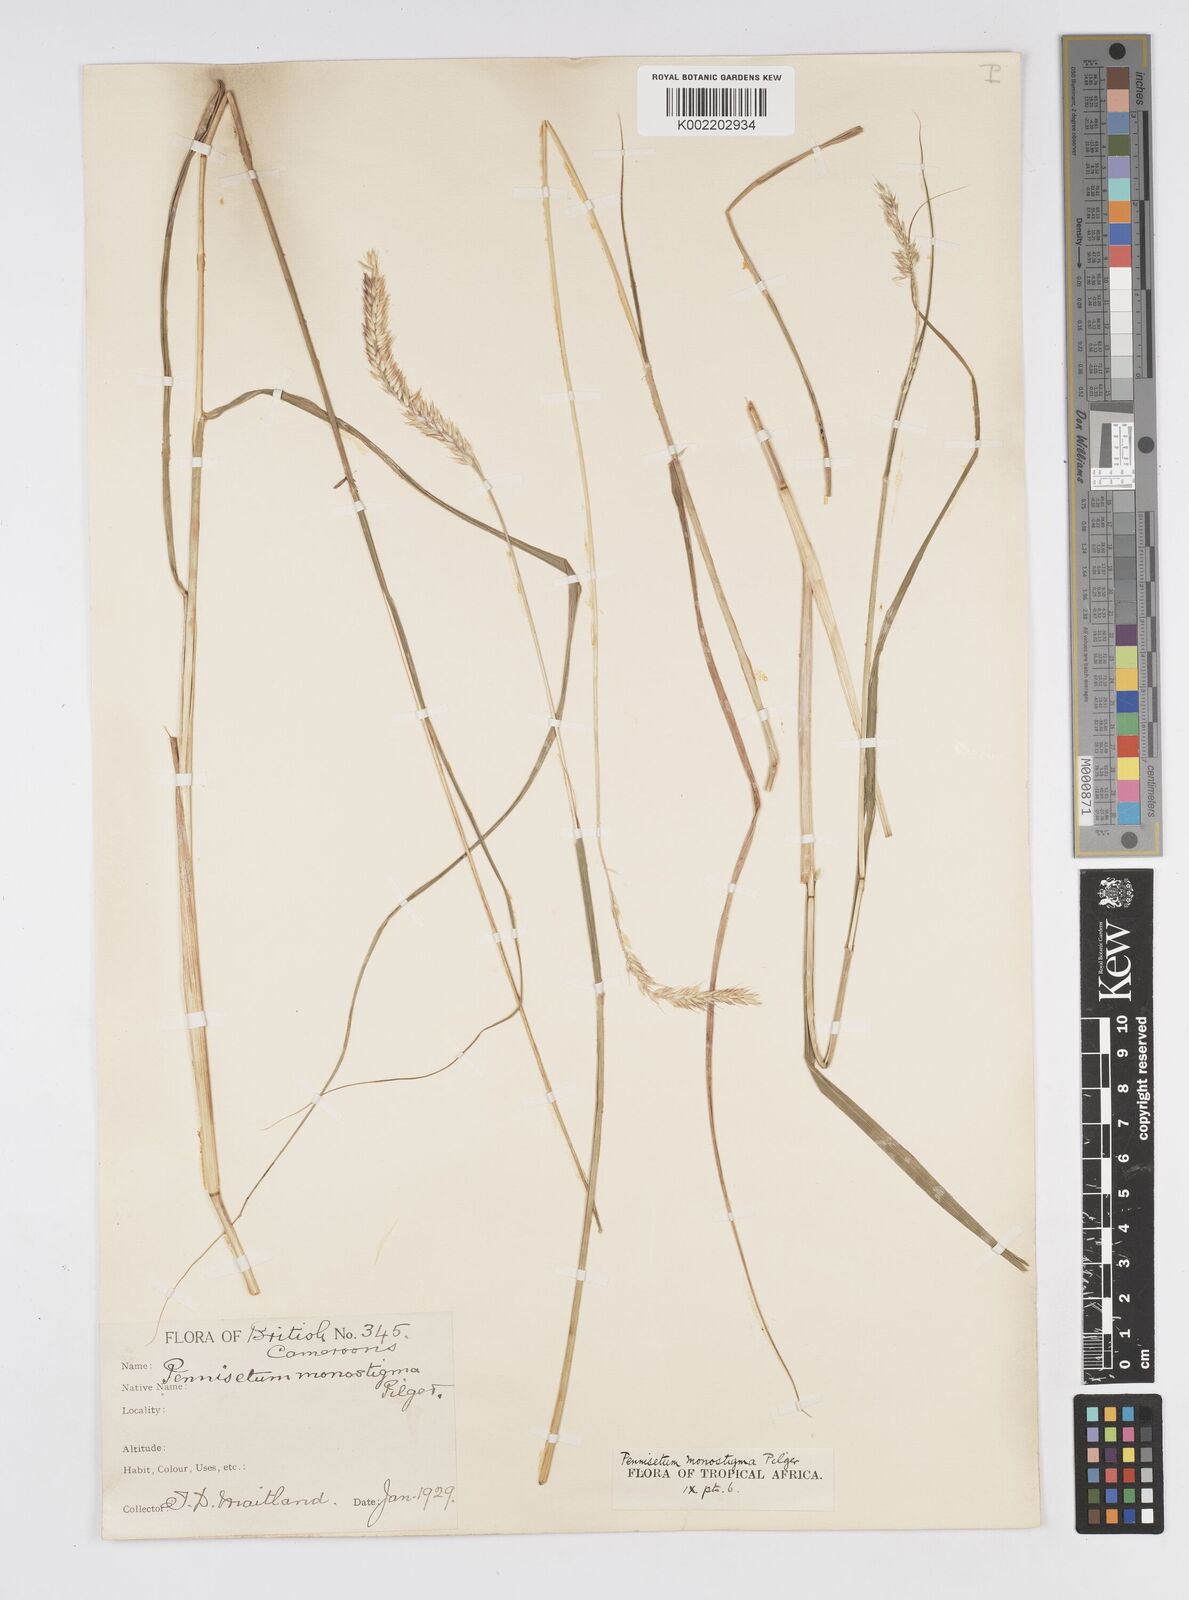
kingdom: Plantae
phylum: Tracheophyta
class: Liliopsida
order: Poales
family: Poaceae
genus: Cenchrus
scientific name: Cenchrus monostigma
